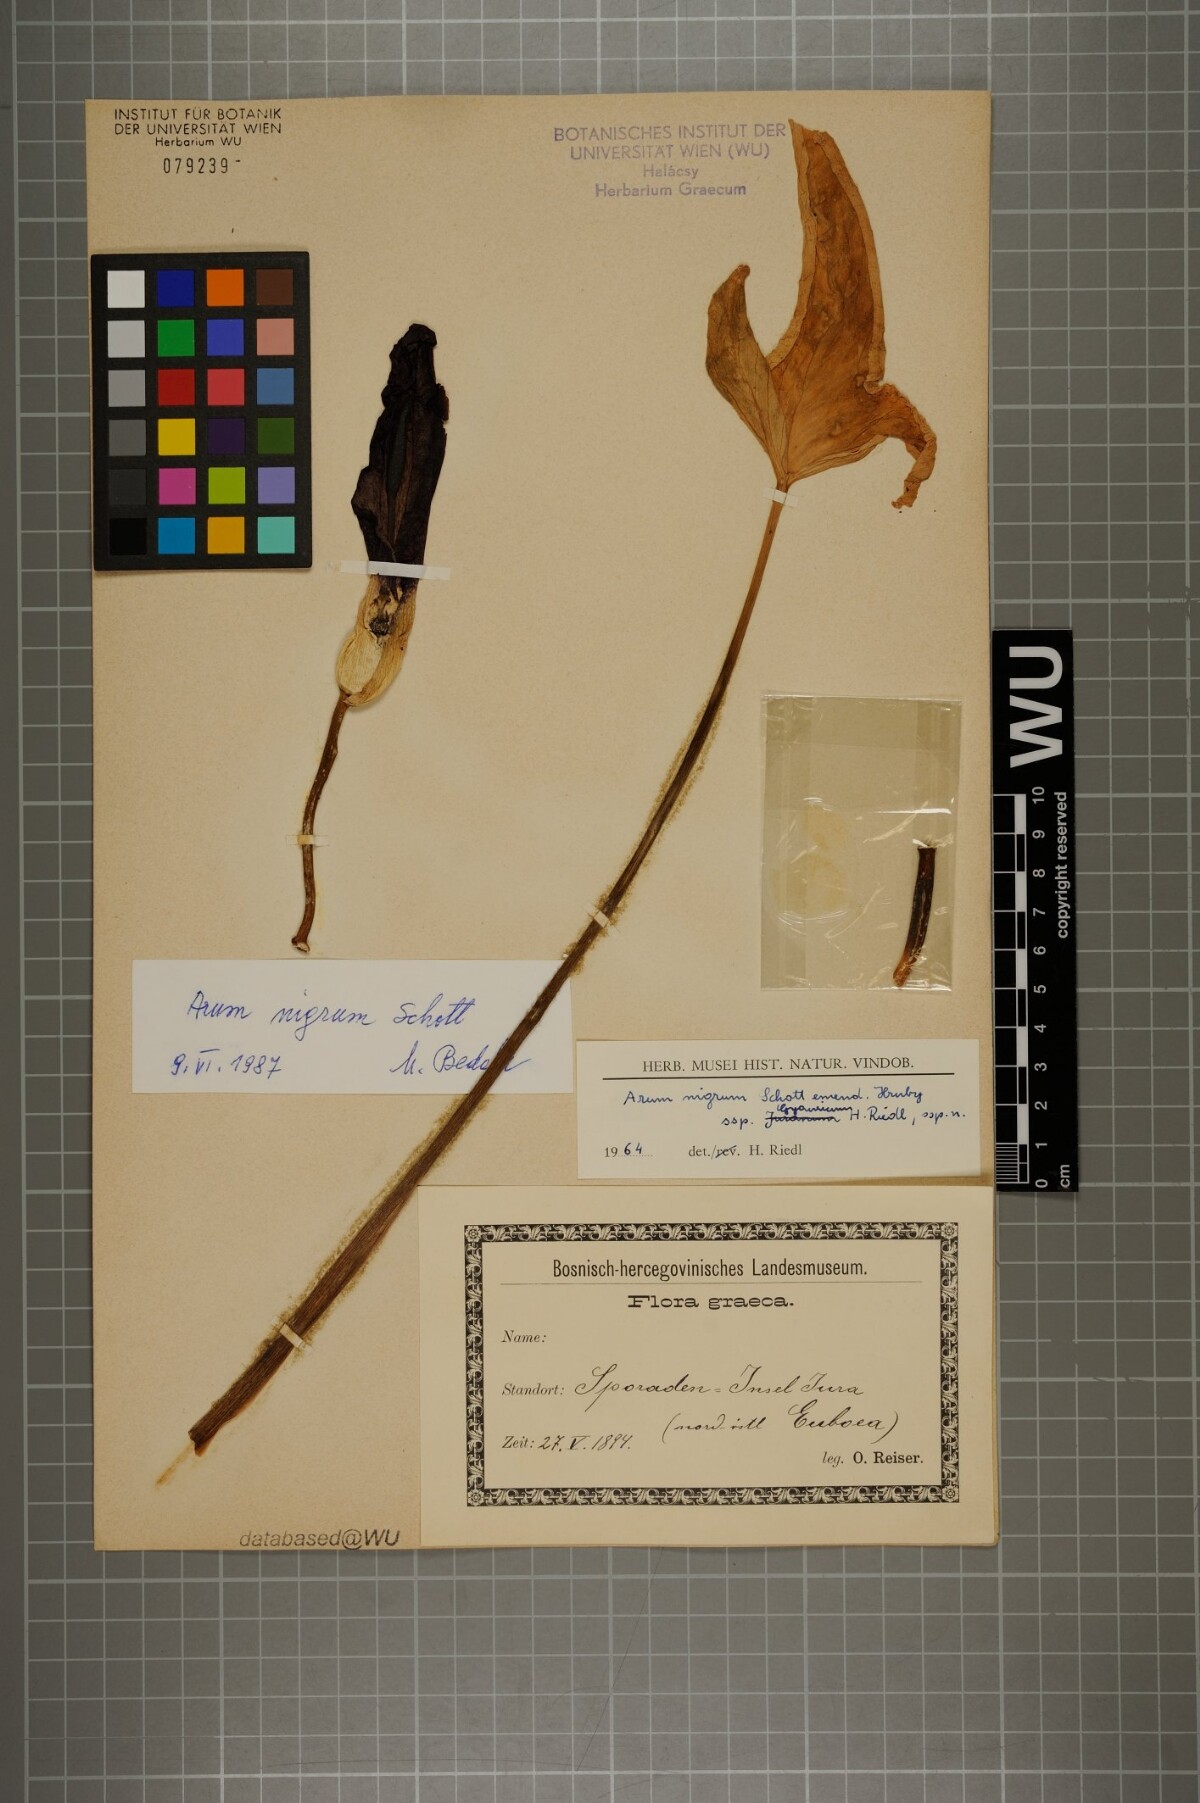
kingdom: Plantae
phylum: Tracheophyta
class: Liliopsida
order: Alismatales
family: Araceae
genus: Arum
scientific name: Arum nigrum
